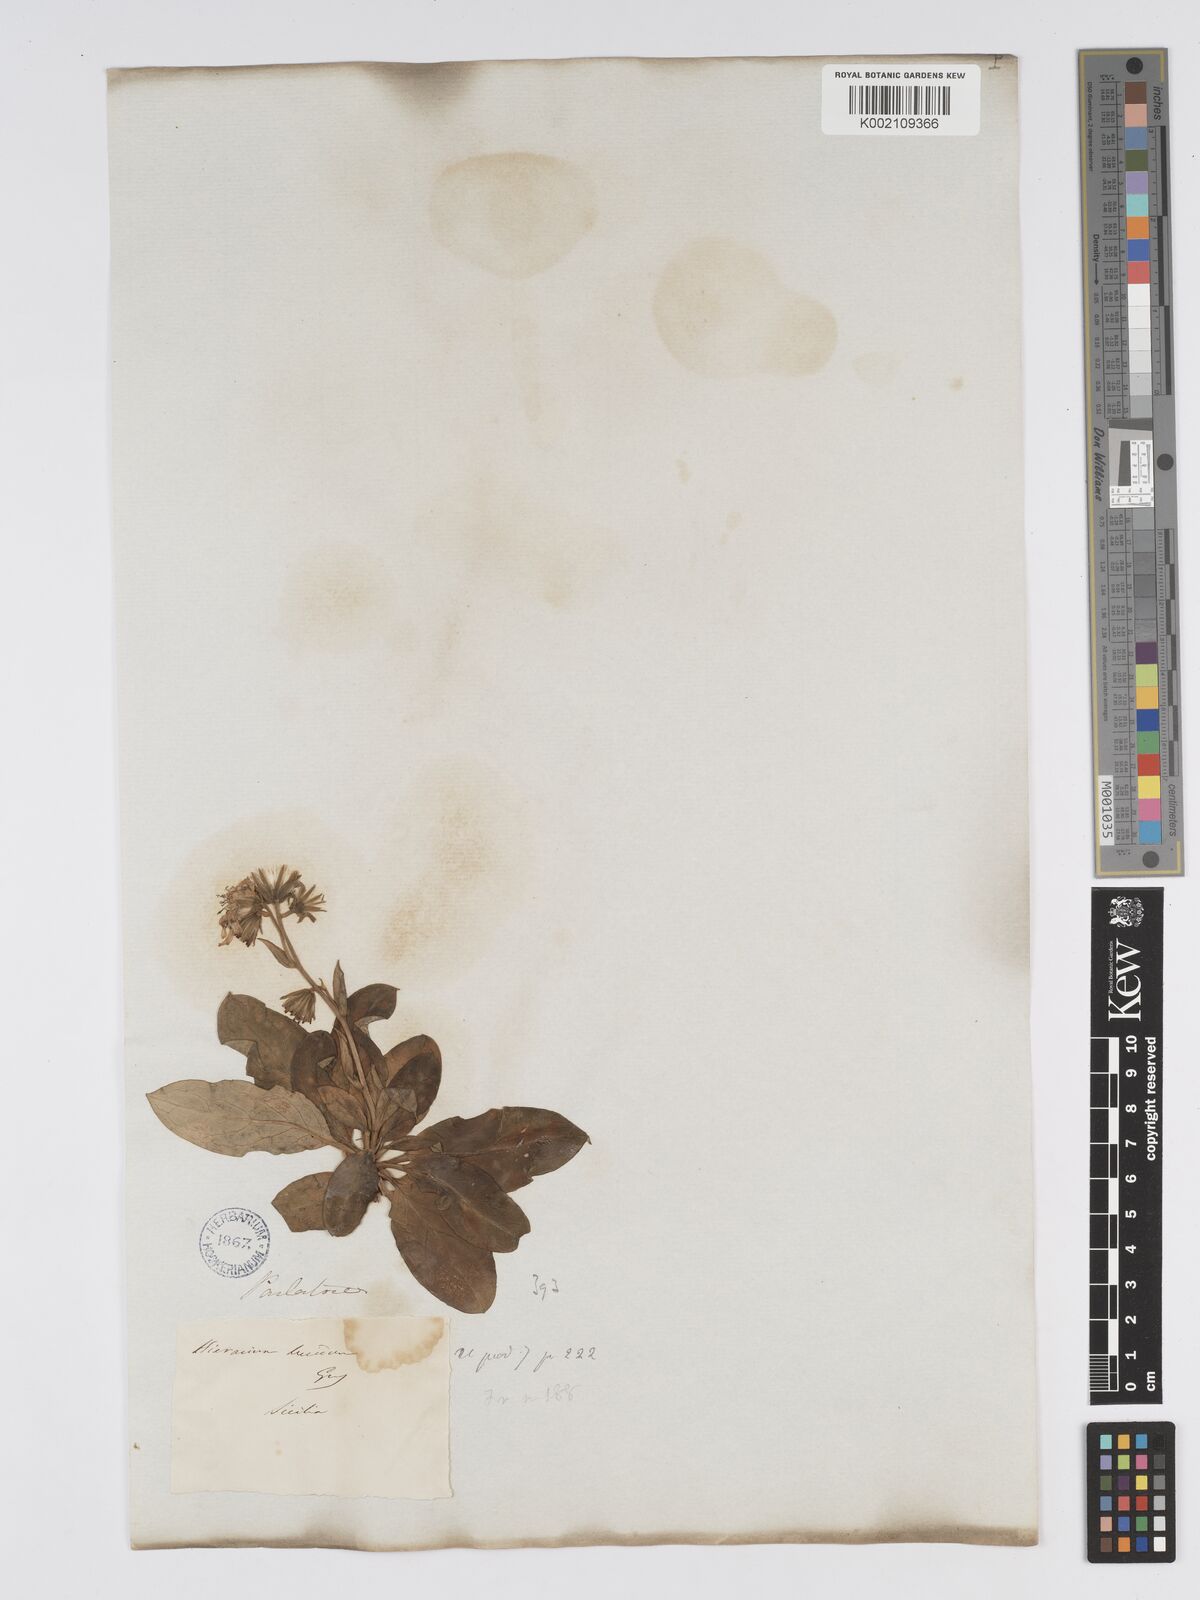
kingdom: Plantae
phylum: Tracheophyta
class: Magnoliopsida
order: Asterales
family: Asteraceae
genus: Hieracium
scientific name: Hieracium lucidum
